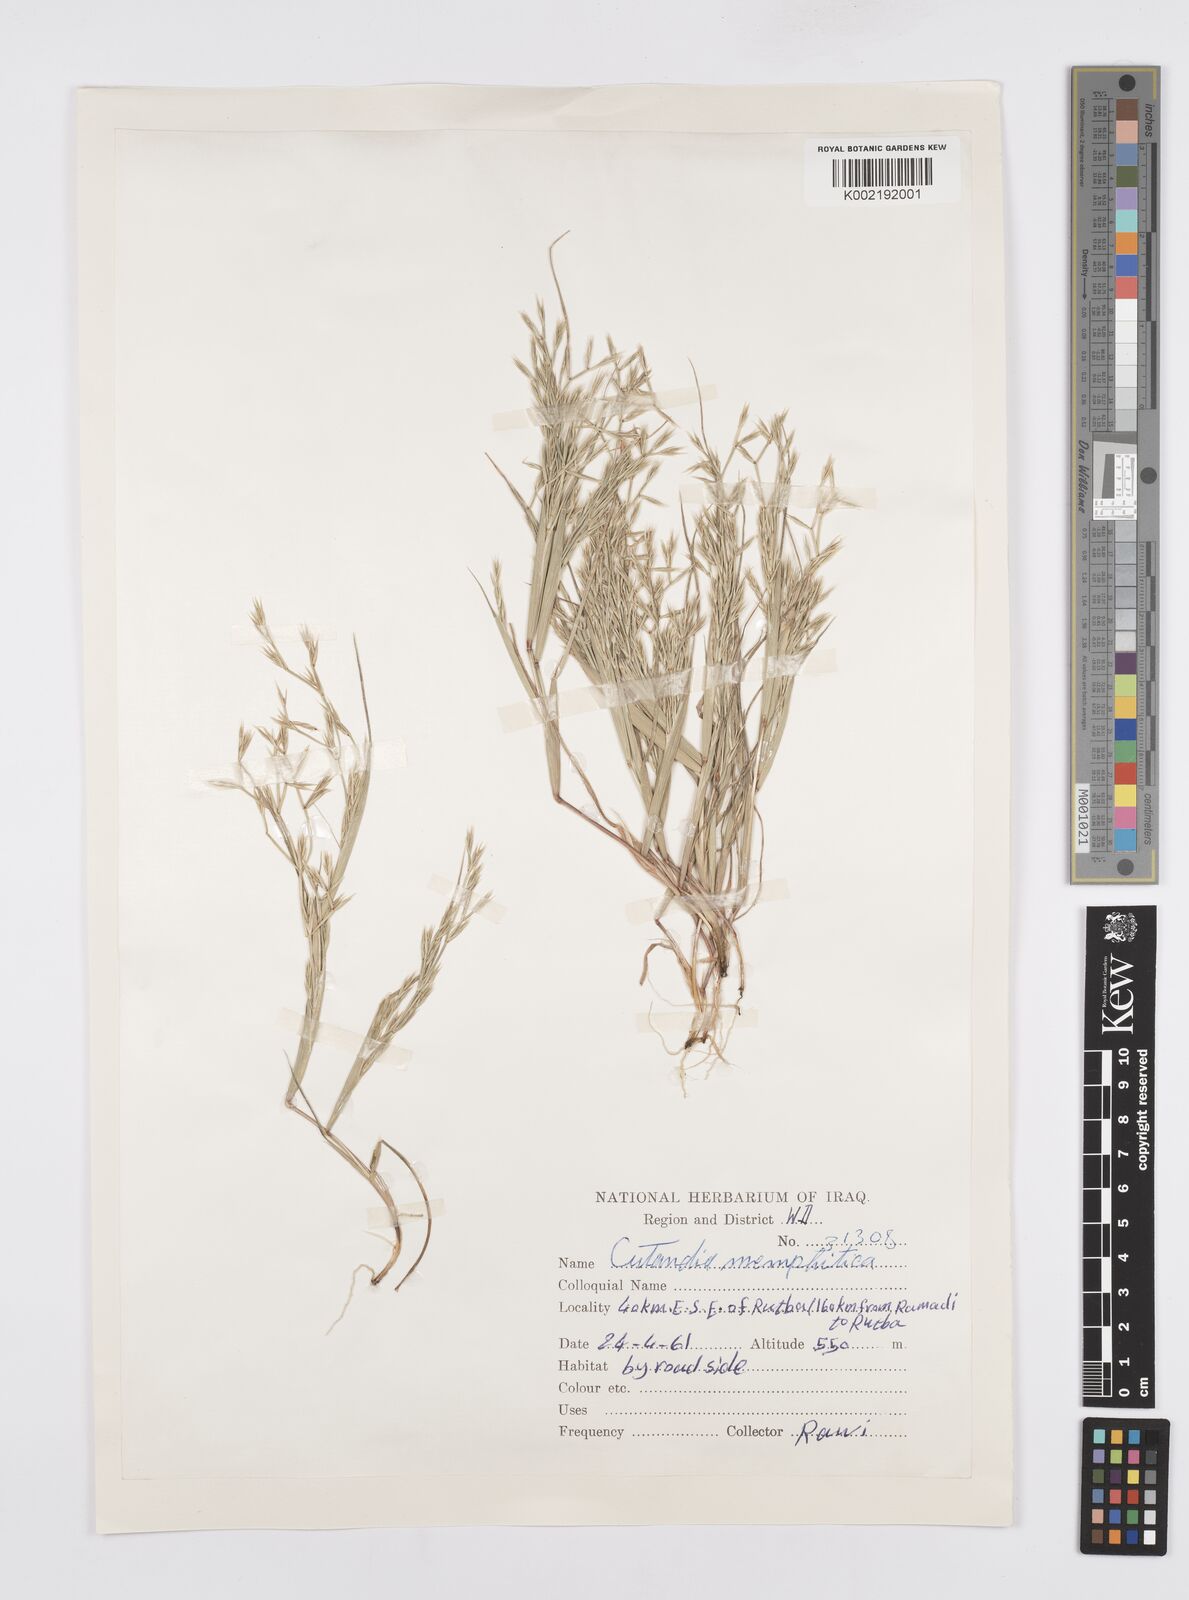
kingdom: Plantae
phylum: Tracheophyta
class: Liliopsida
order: Poales
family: Poaceae
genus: Cutandia
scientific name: Cutandia memphitica
